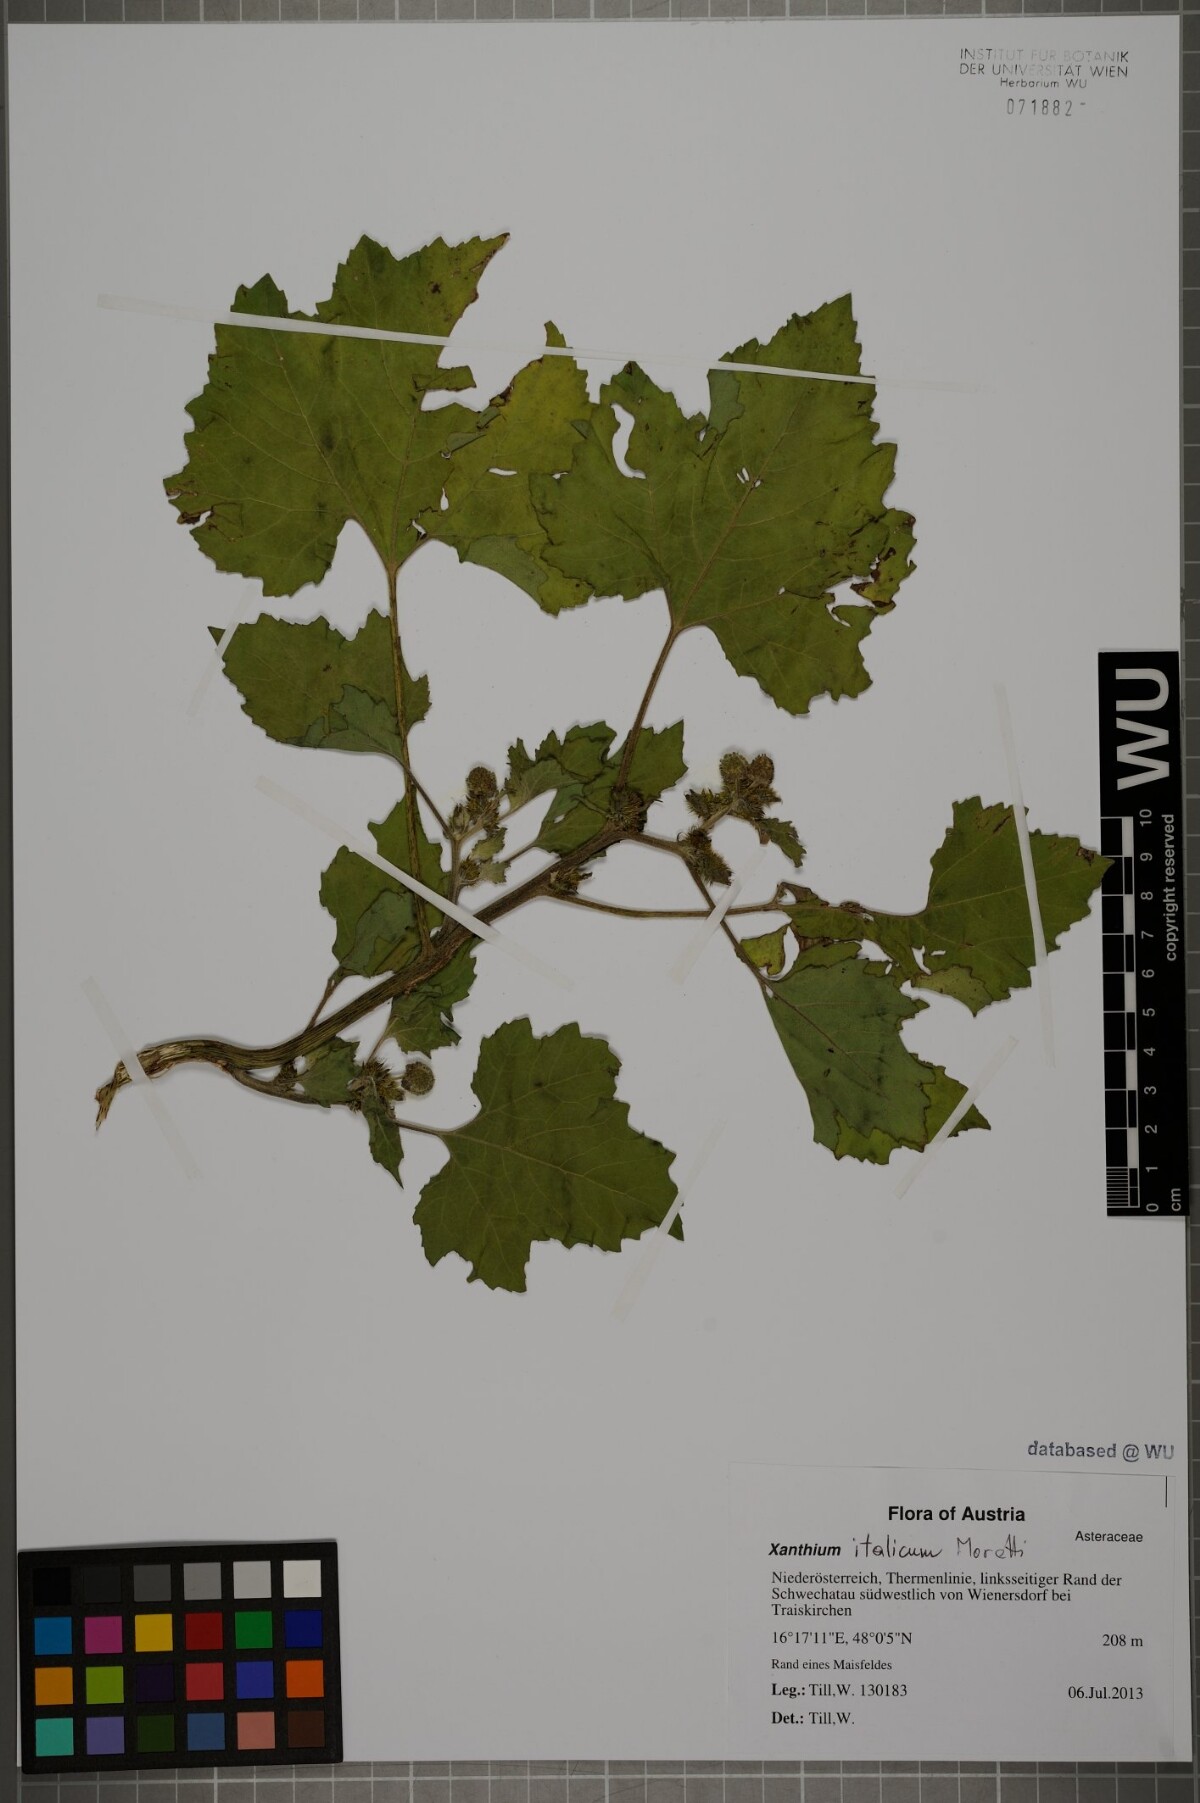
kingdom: Plantae
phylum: Tracheophyta
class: Magnoliopsida
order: Asterales
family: Asteraceae
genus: Xanthium
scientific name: Xanthium orientale
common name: Californian burr
